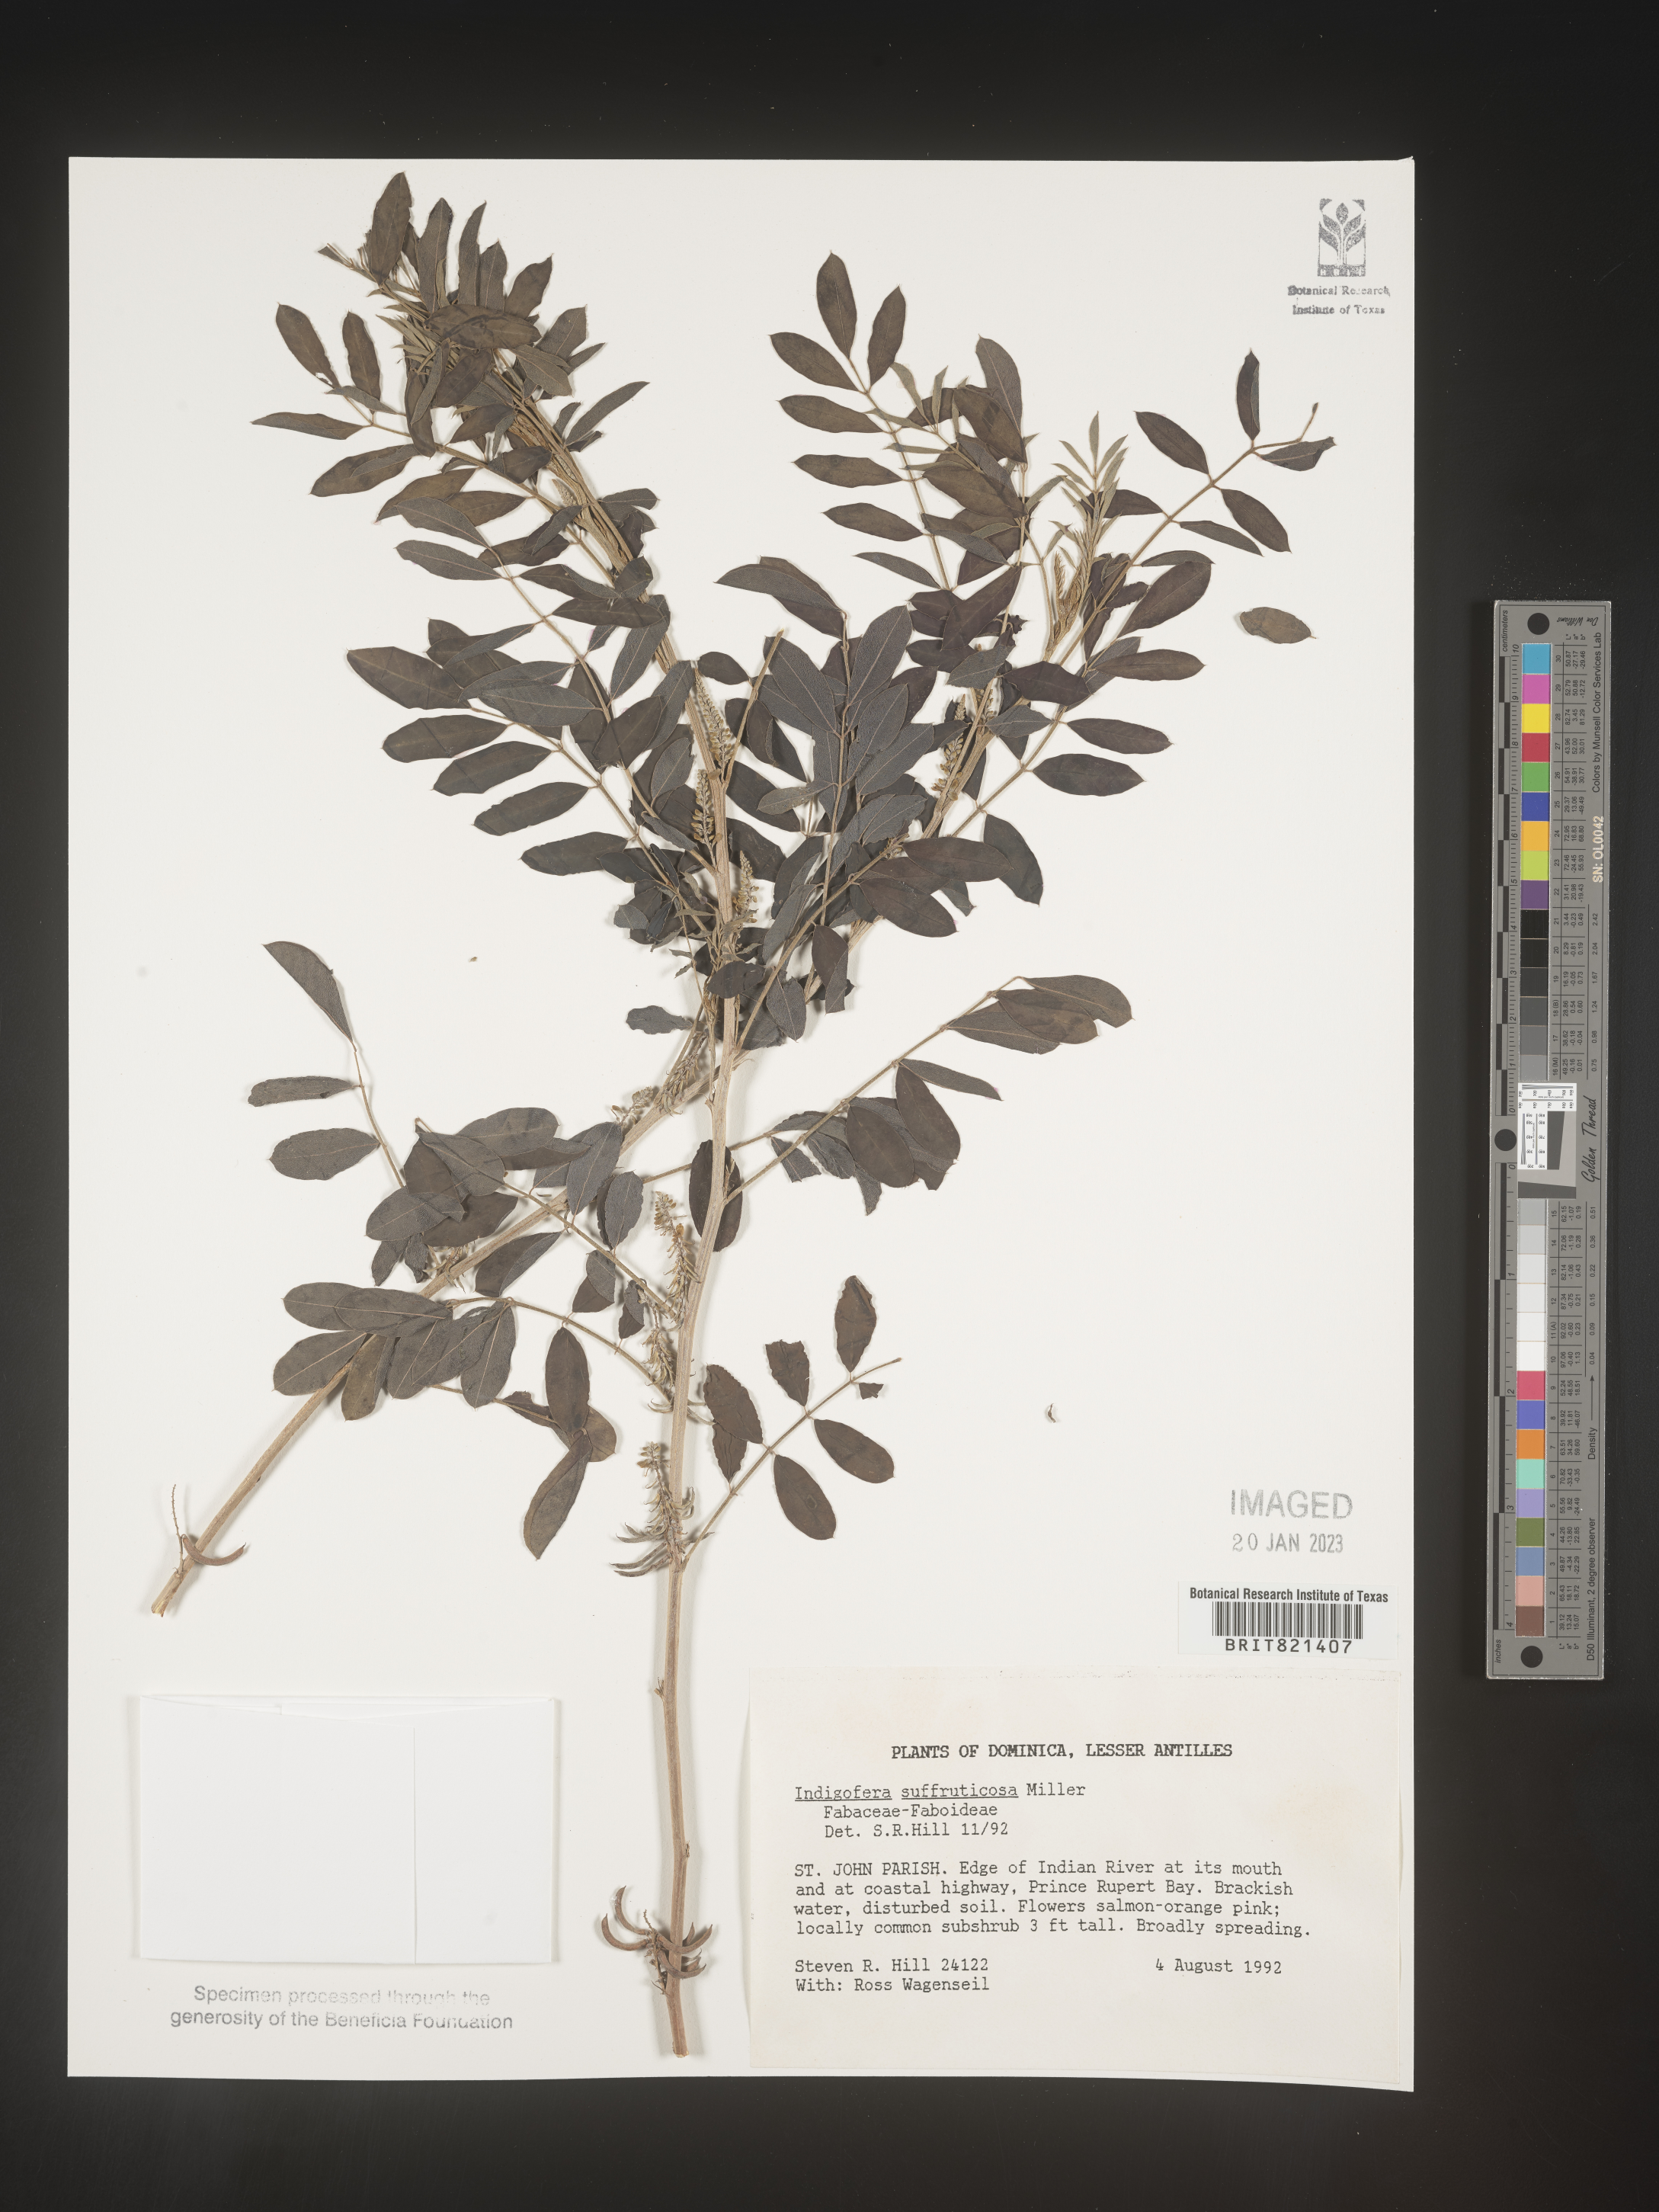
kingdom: Plantae
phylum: Tracheophyta
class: Magnoliopsida
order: Fabales
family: Fabaceae
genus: Indigofera
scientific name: Indigofera
